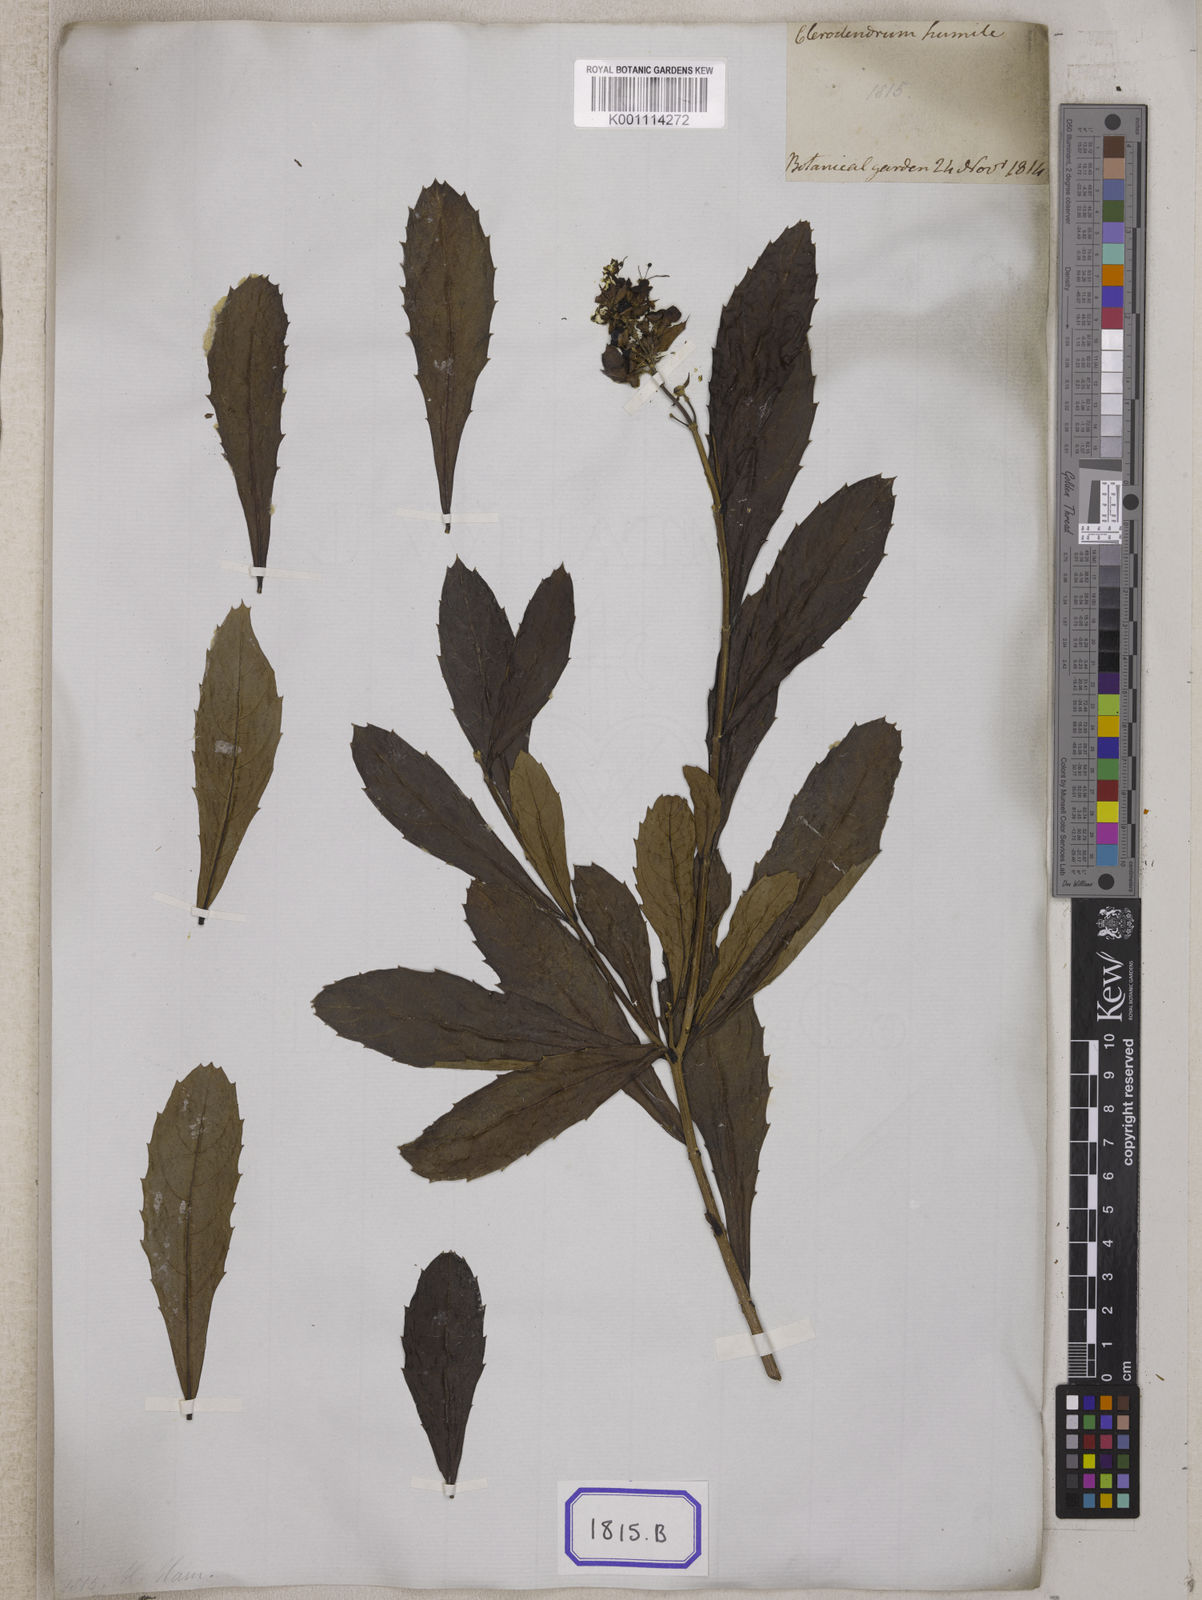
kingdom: Plantae
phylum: Tracheophyta
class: Magnoliopsida
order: Lamiales
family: Lamiaceae
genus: Clerodendrum
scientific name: Clerodendrum
